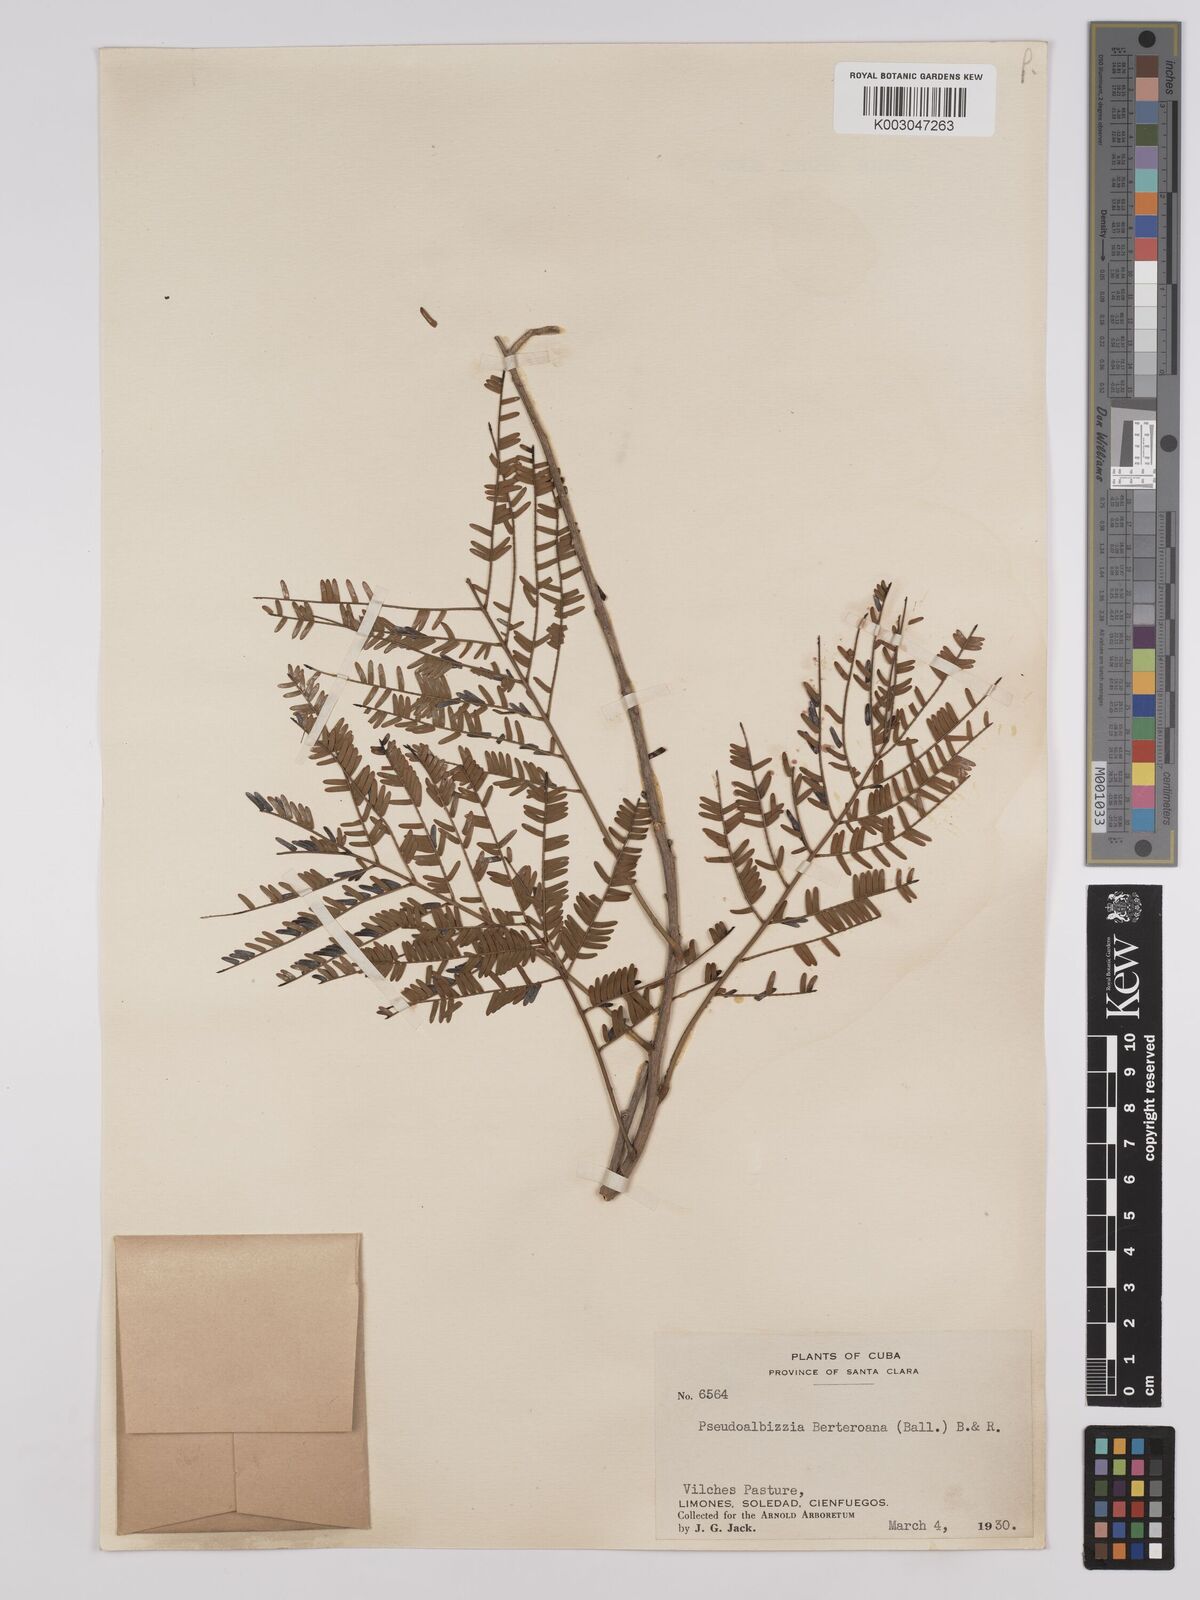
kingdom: Plantae
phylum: Tracheophyta
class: Magnoliopsida
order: Fabales
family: Fabaceae
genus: Albizia
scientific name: Albizia
